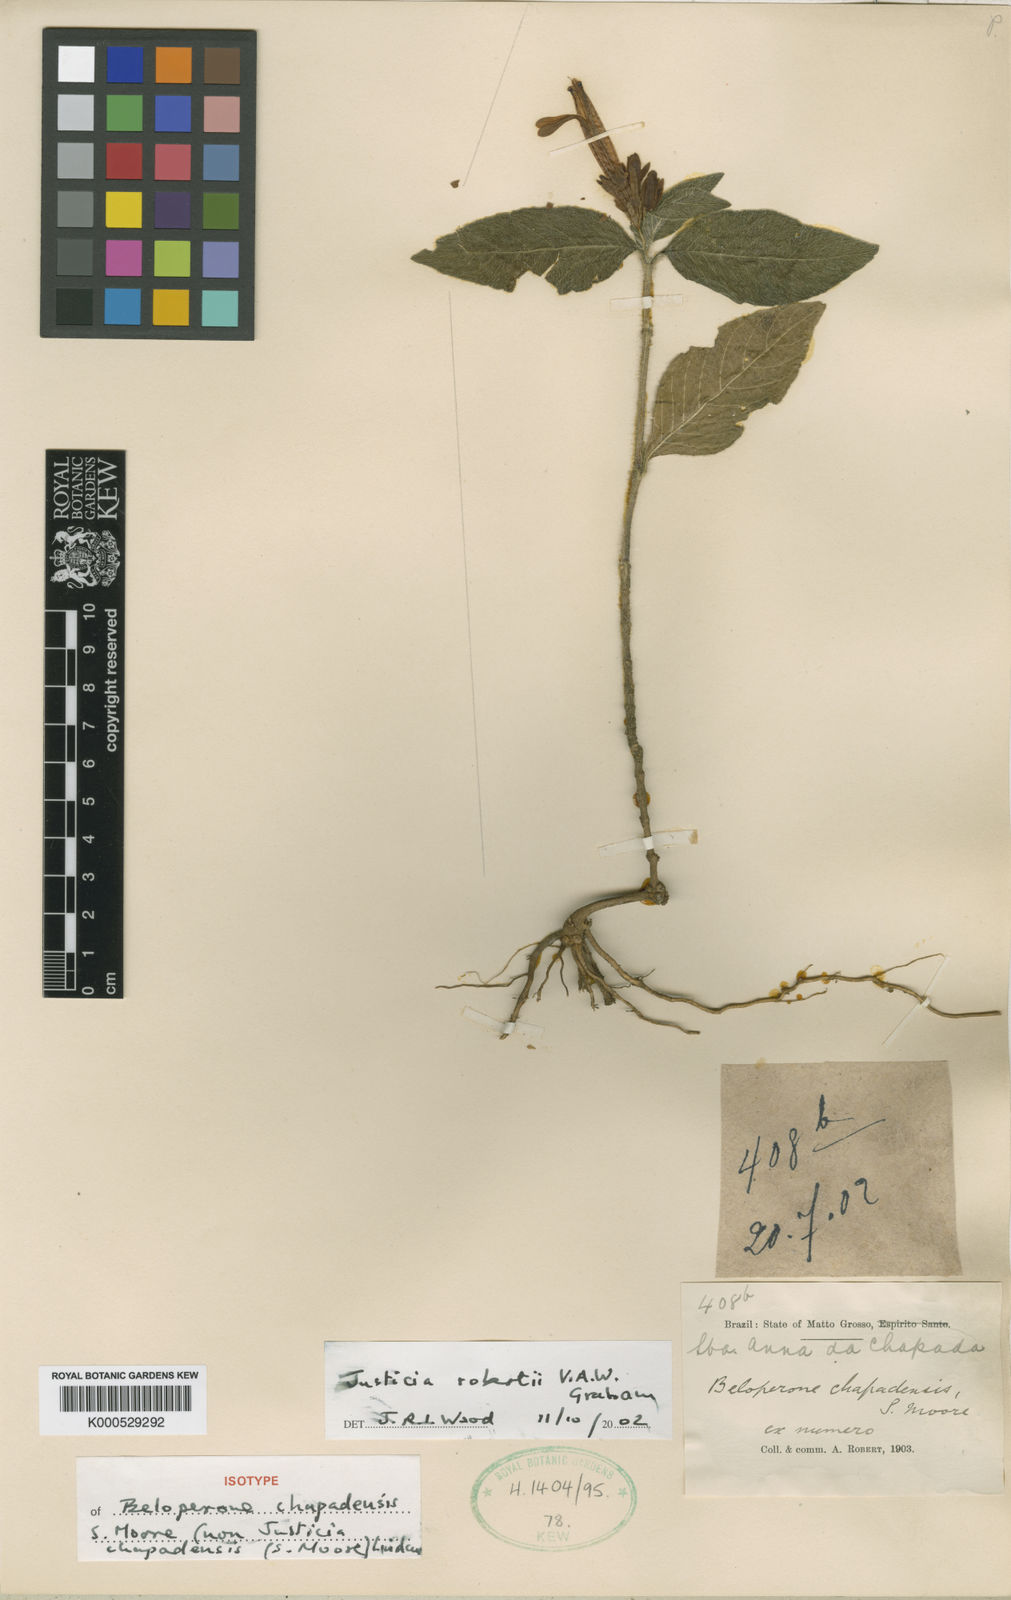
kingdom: Plantae
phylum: Tracheophyta
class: Magnoliopsida
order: Lamiales
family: Acanthaceae
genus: Justicia
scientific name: Justicia robertii
